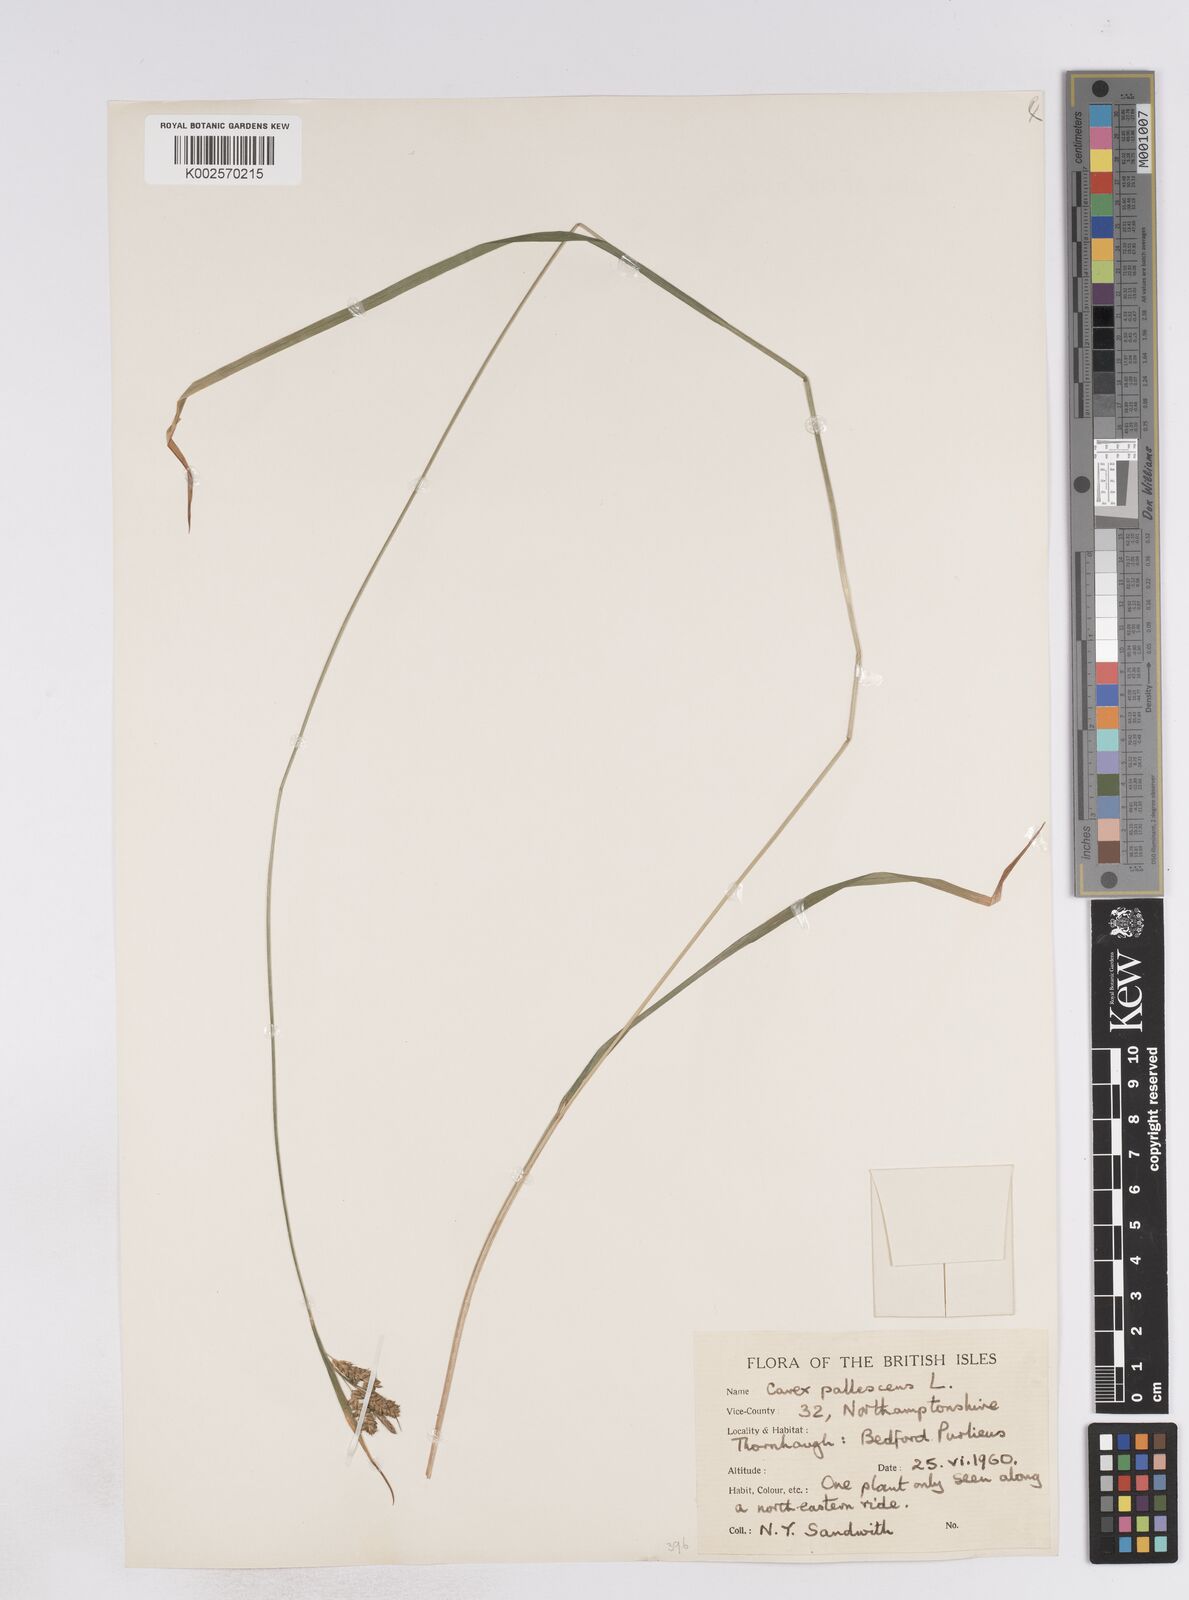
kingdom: Plantae
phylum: Tracheophyta
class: Liliopsida
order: Poales
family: Cyperaceae
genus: Carex
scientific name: Carex pallescens
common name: Pale sedge
